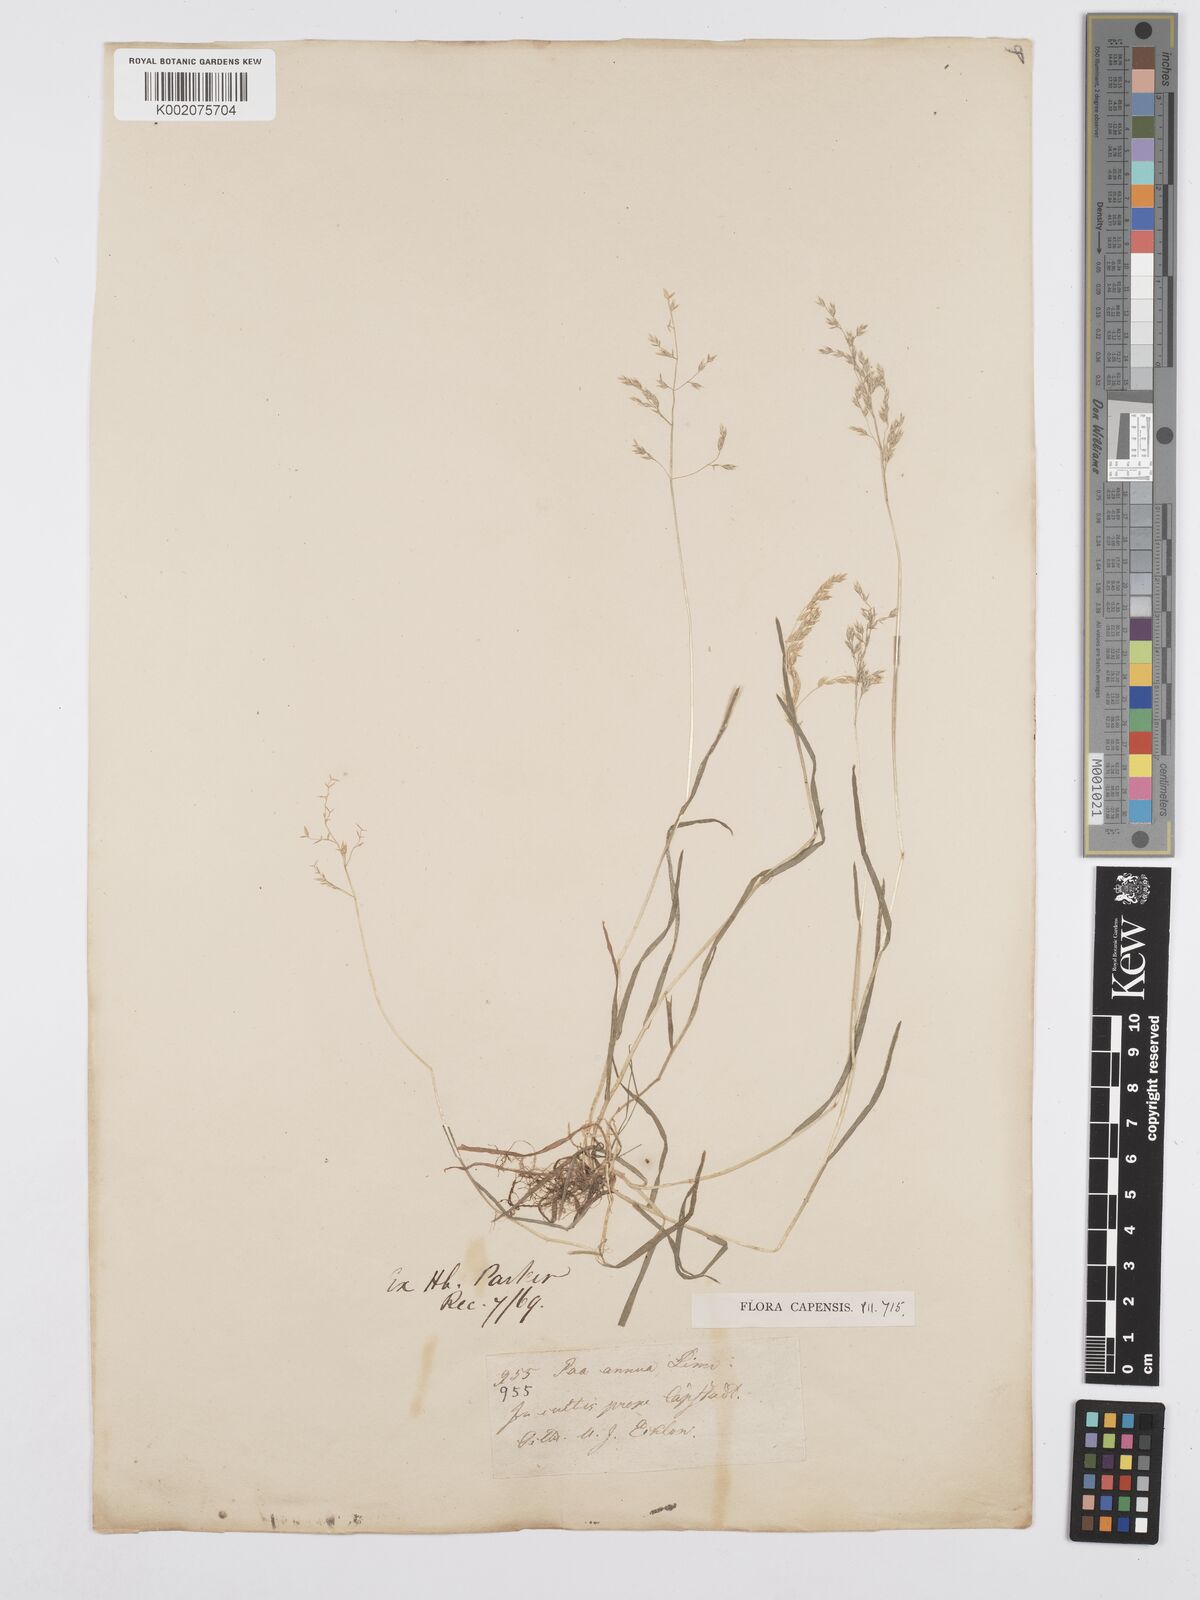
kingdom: Plantae
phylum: Tracheophyta
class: Liliopsida
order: Poales
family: Poaceae
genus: Poa
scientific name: Poa annua
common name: Annual bluegrass
